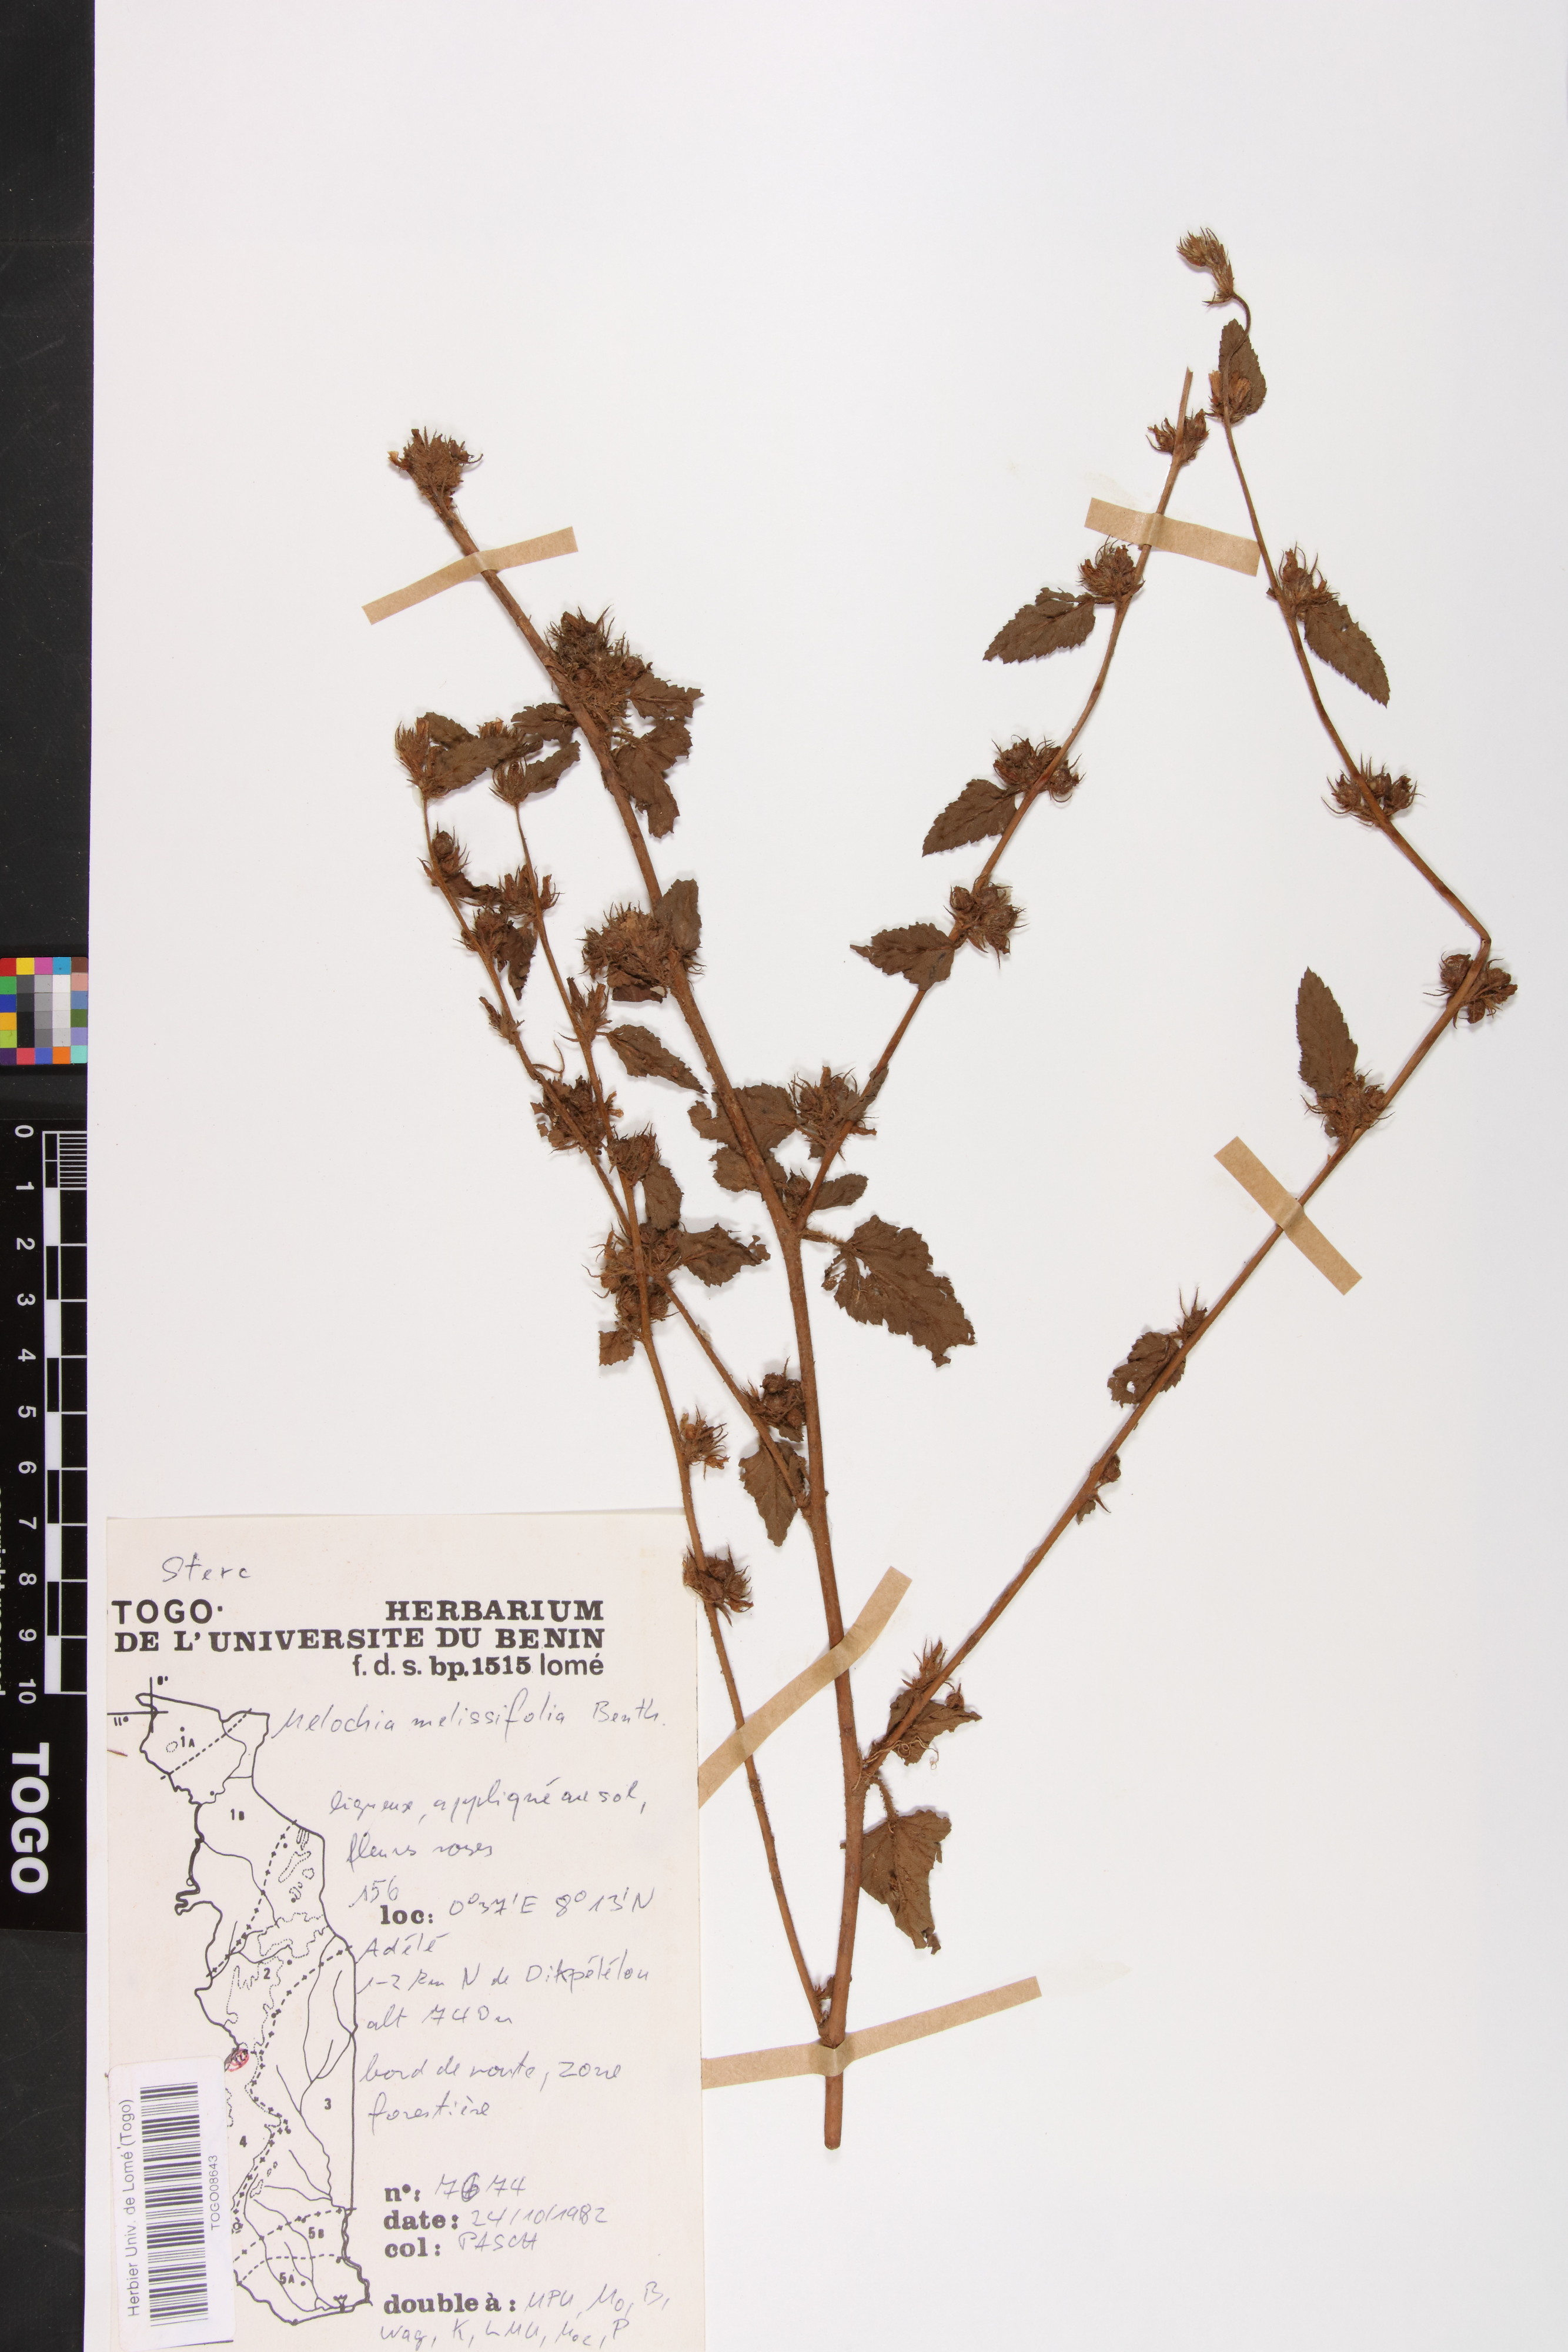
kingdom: Plantae
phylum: Tracheophyta
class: Magnoliopsida
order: Malvales
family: Malvaceae
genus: Melochia
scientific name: Melochia melissifolia
